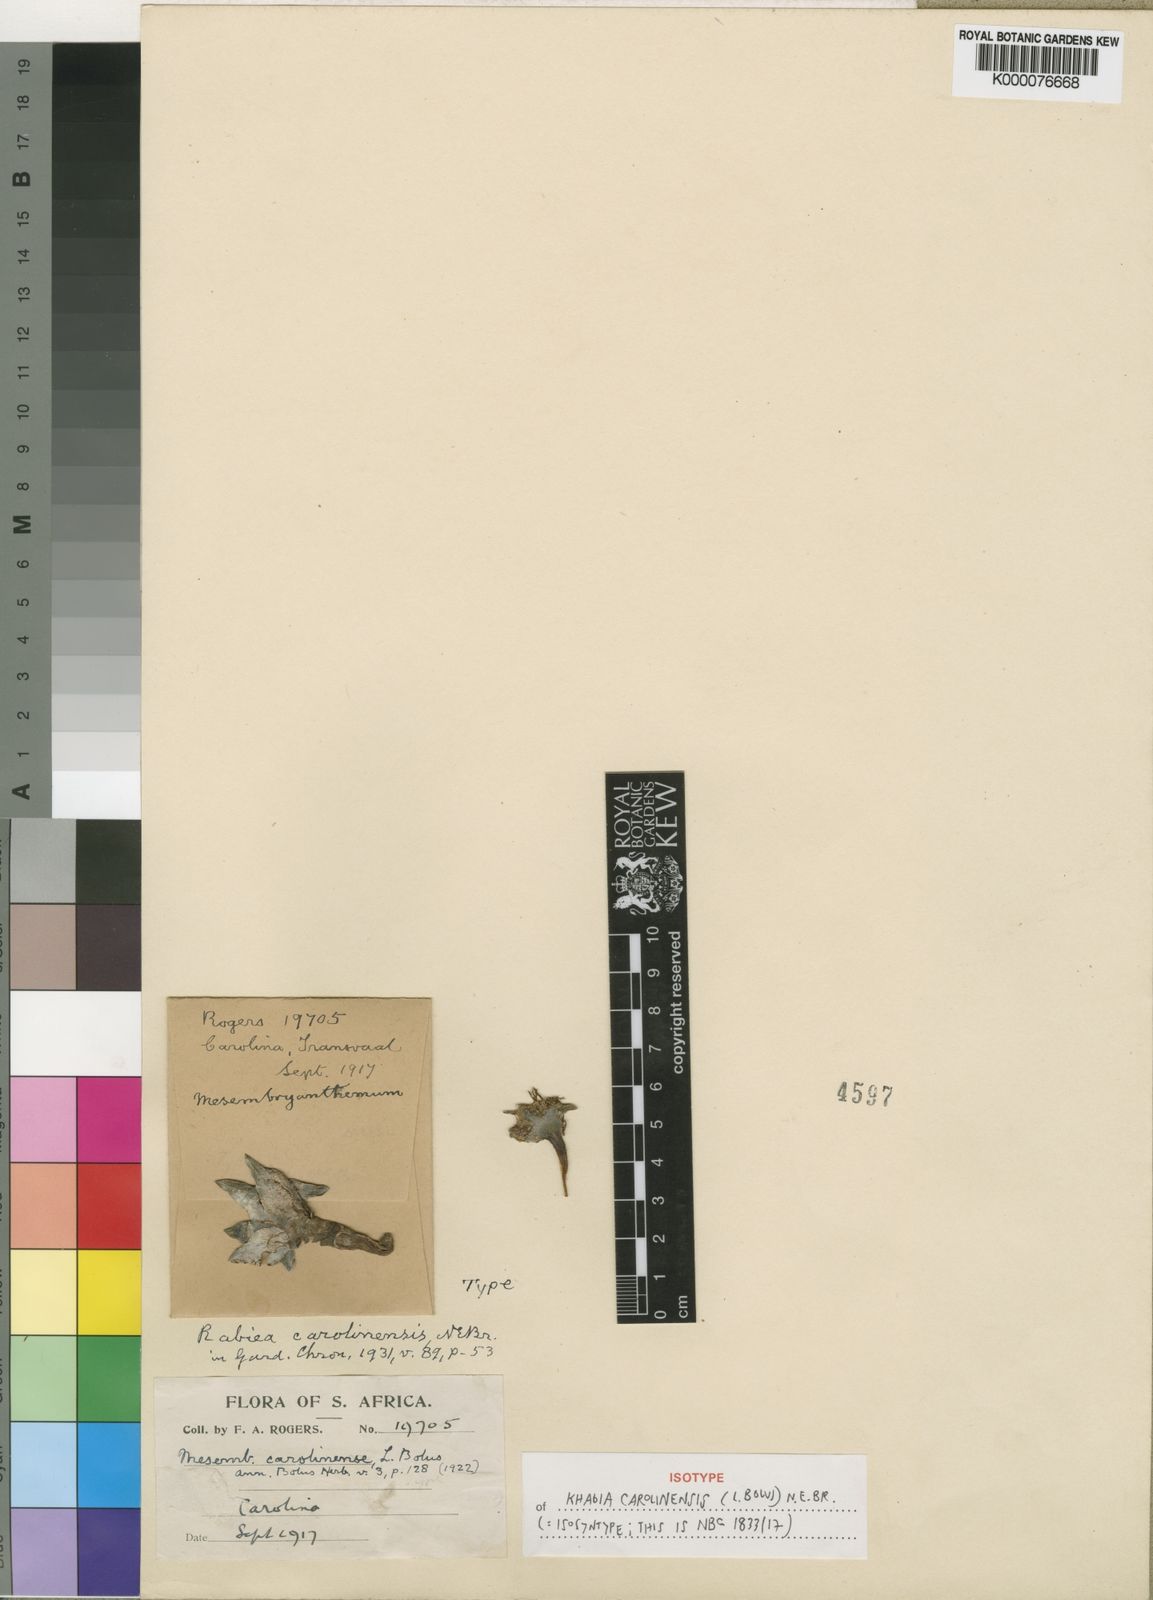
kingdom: Plantae
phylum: Tracheophyta
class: Magnoliopsida
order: Caryophyllales
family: Aizoaceae
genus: Khadia
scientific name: Khadia carolinensis
